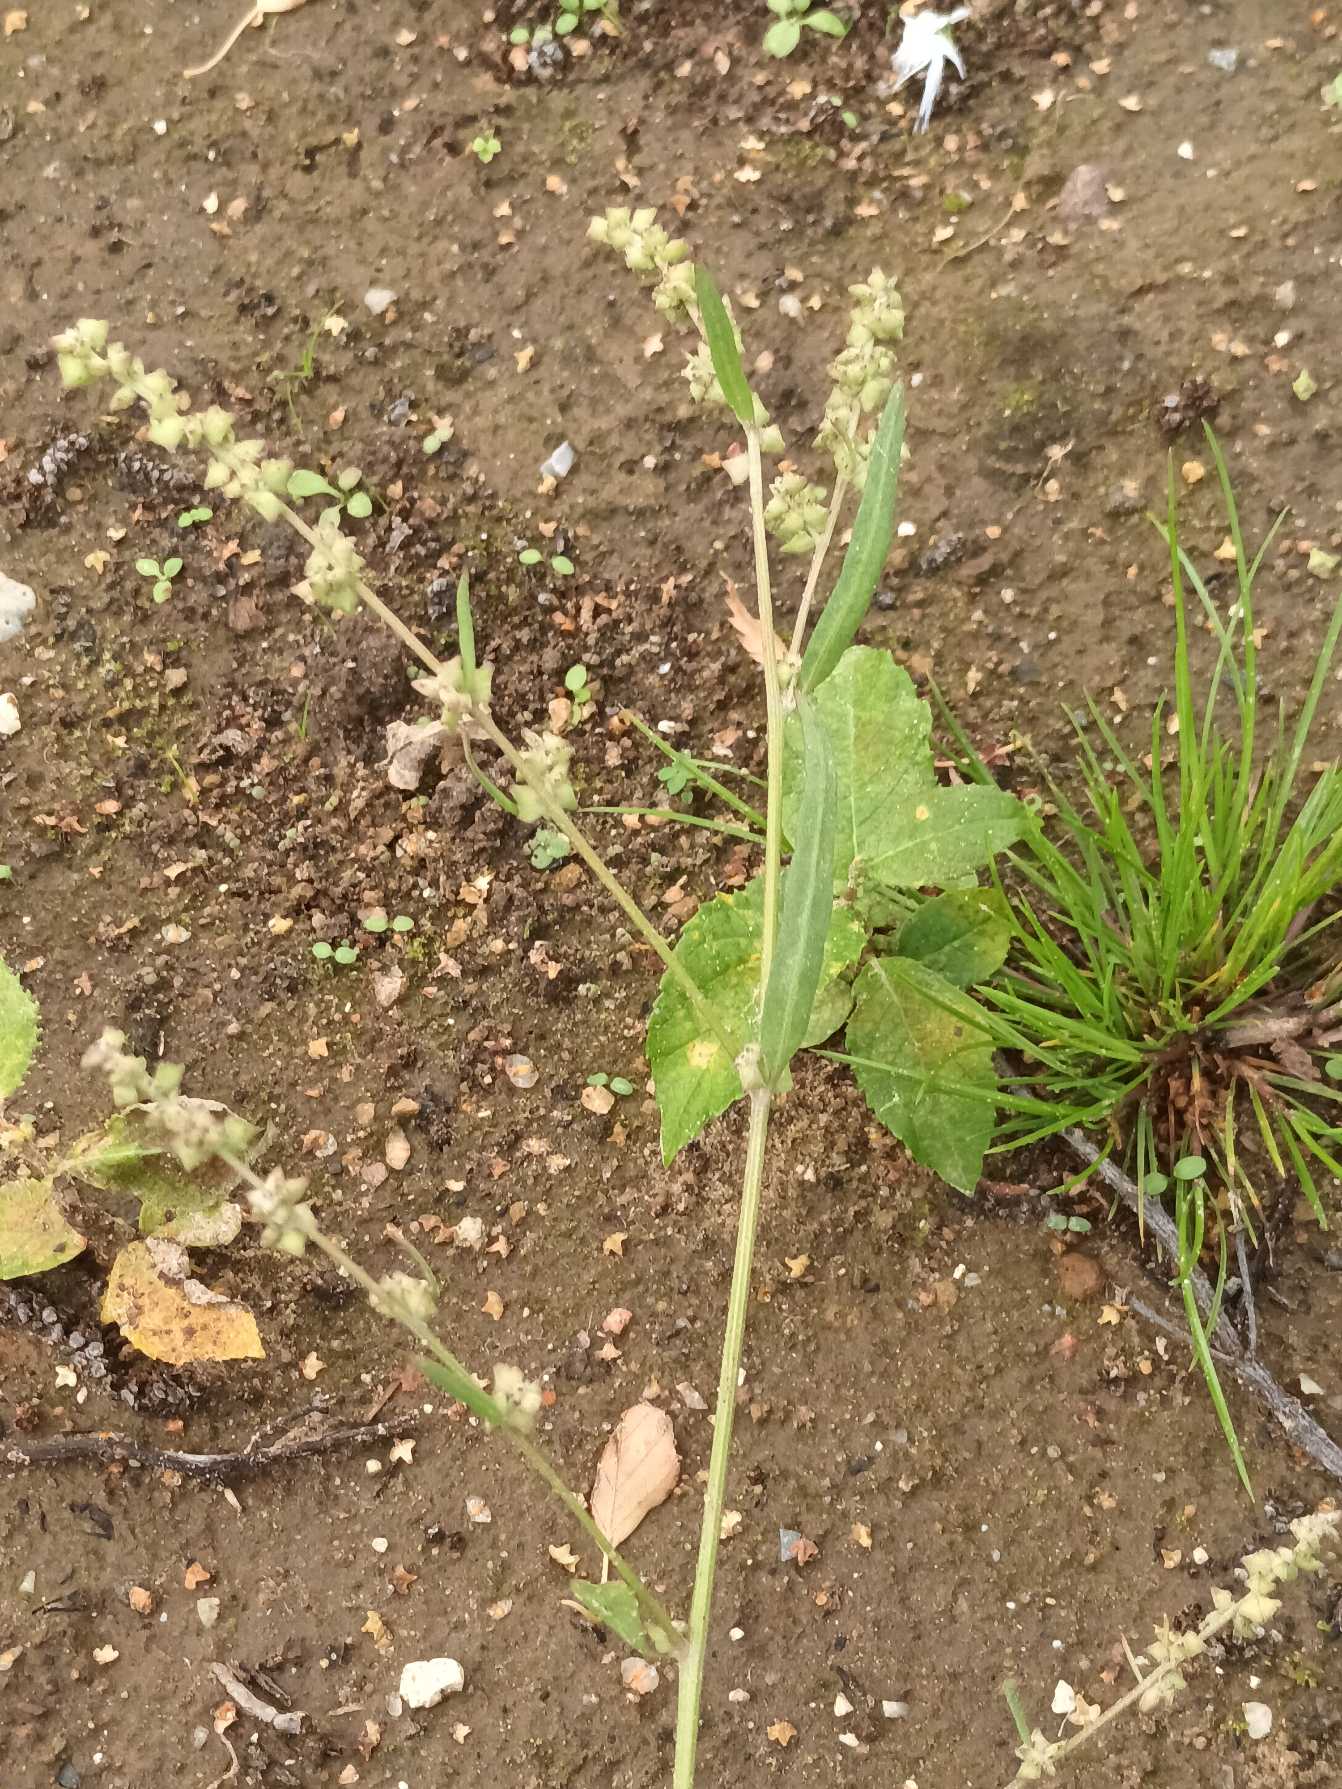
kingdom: Plantae
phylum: Tracheophyta
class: Magnoliopsida
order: Caryophyllales
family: Amaranthaceae
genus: Atriplex
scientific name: Atriplex patula
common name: Svine-mælde
